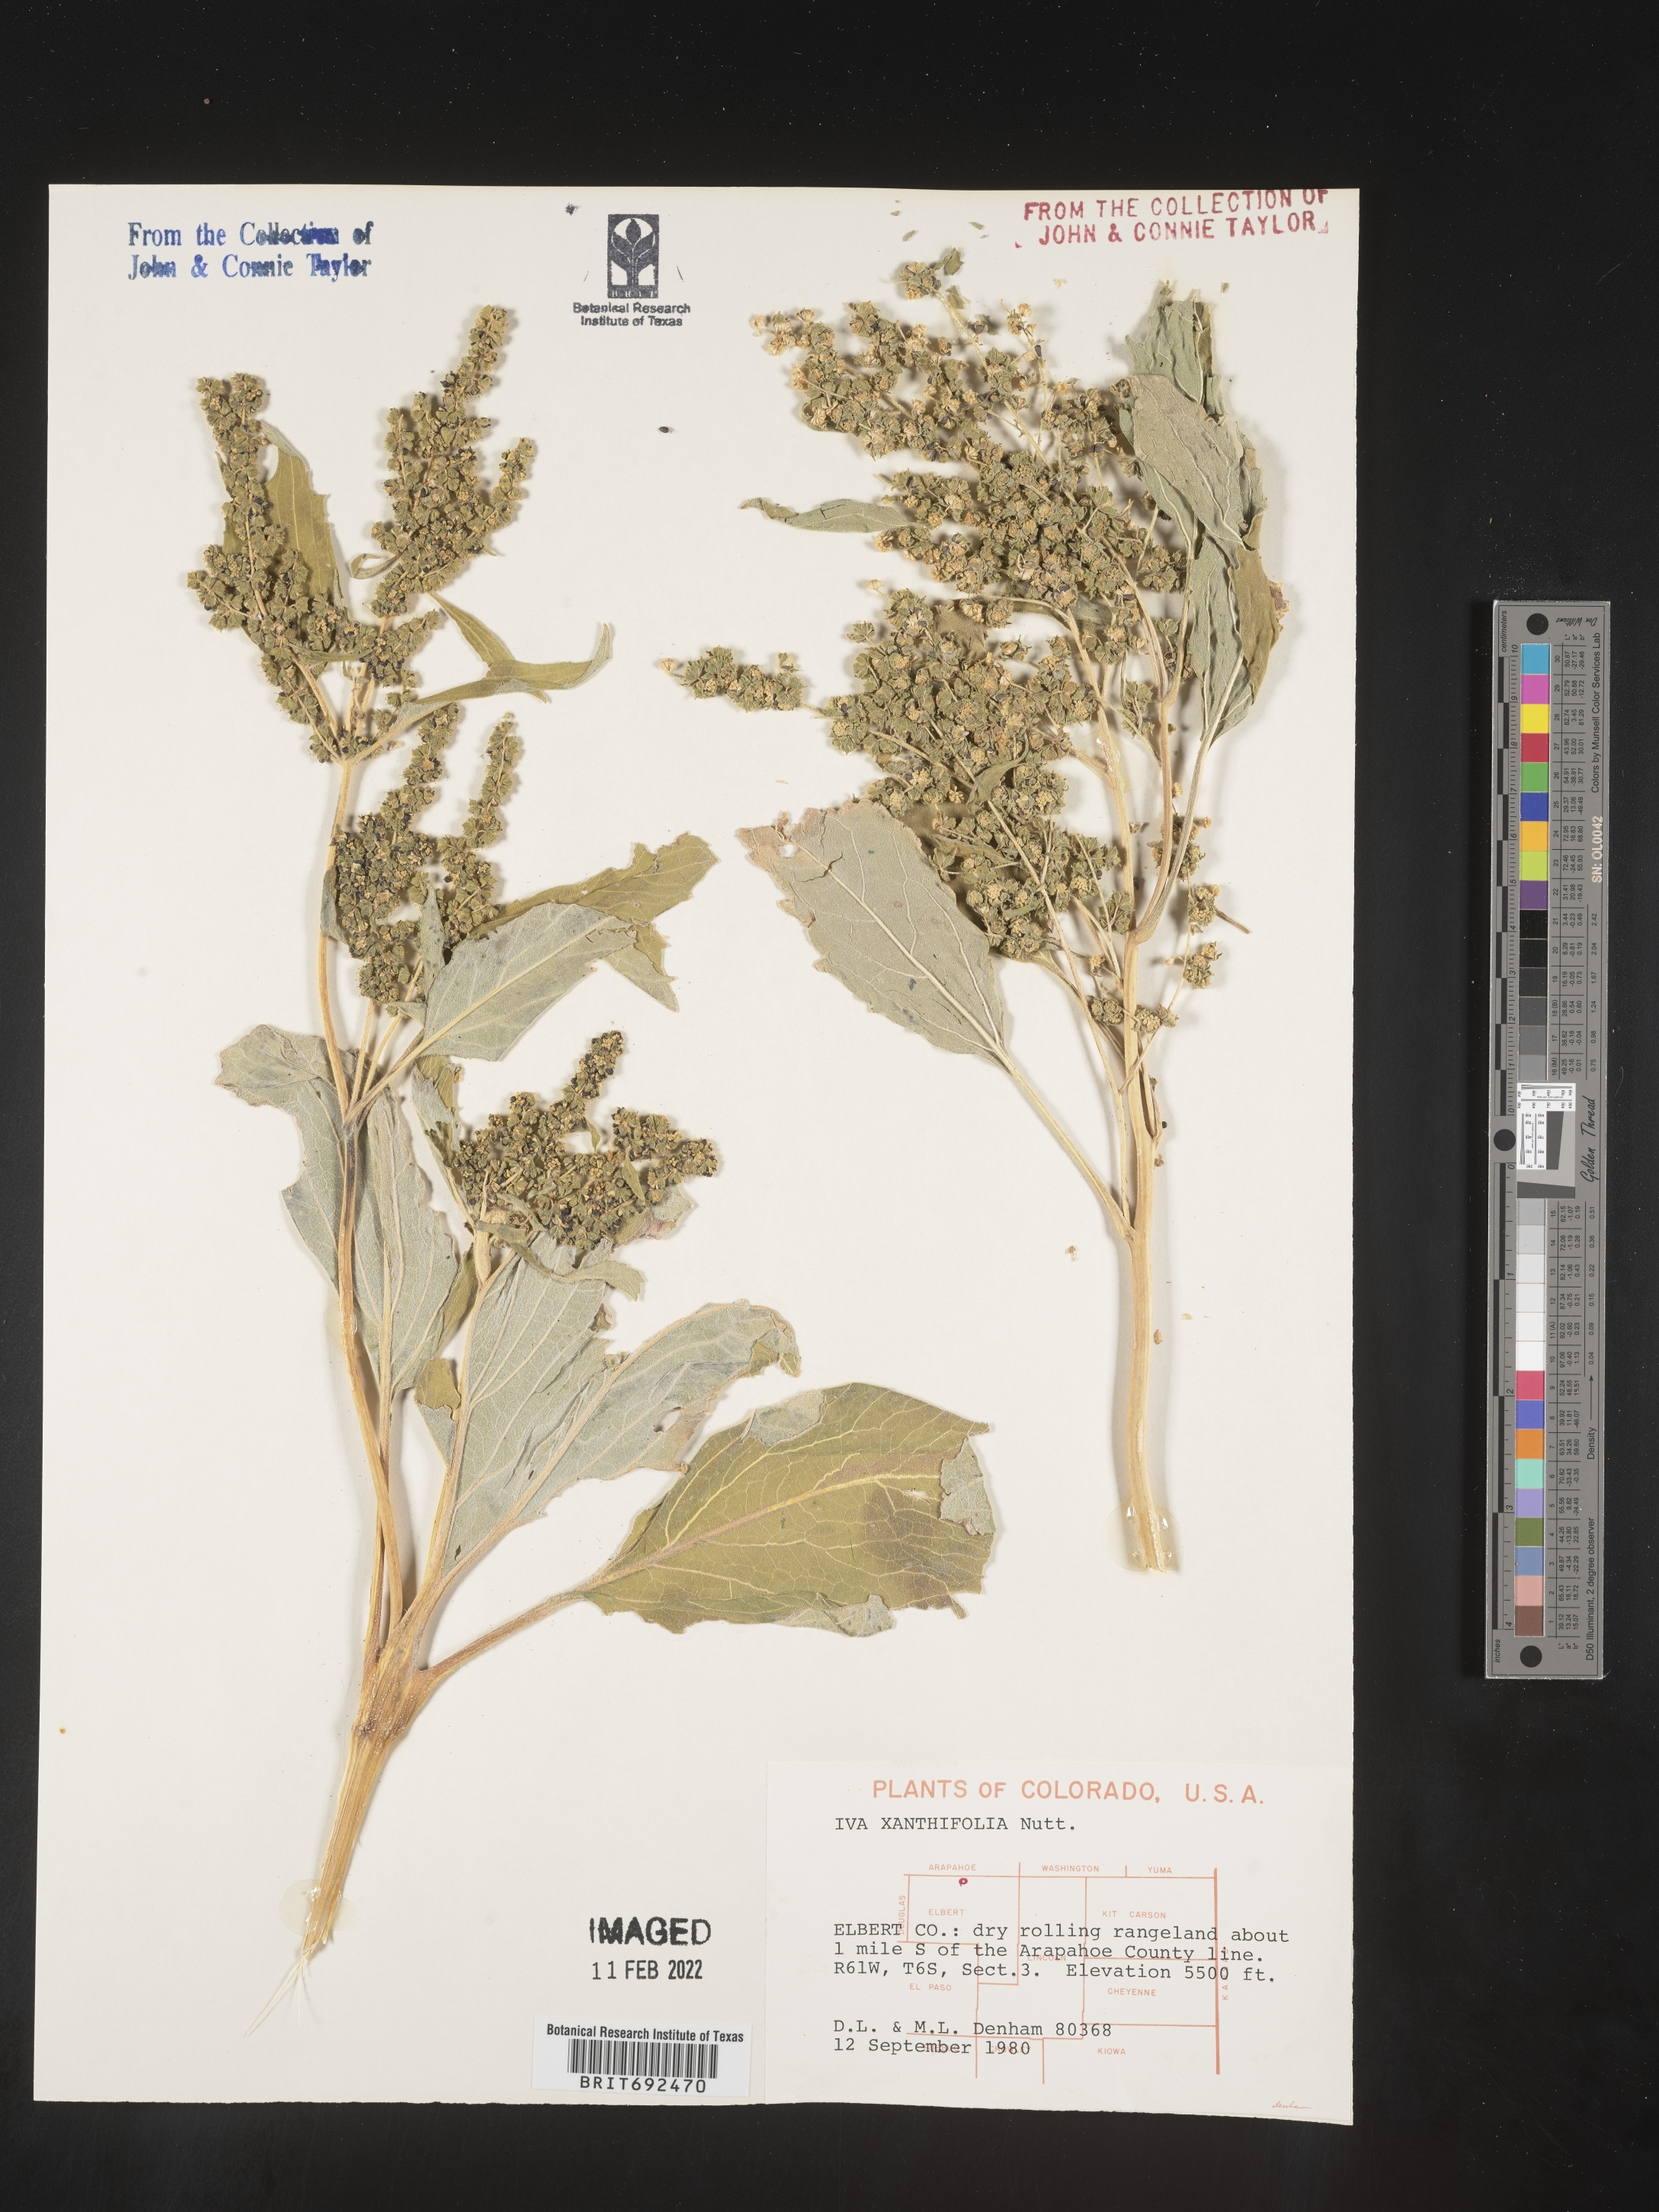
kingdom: Plantae
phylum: Tracheophyta
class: Magnoliopsida
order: Asterales
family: Asteraceae
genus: Cyclachaena
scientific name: Cyclachaena
